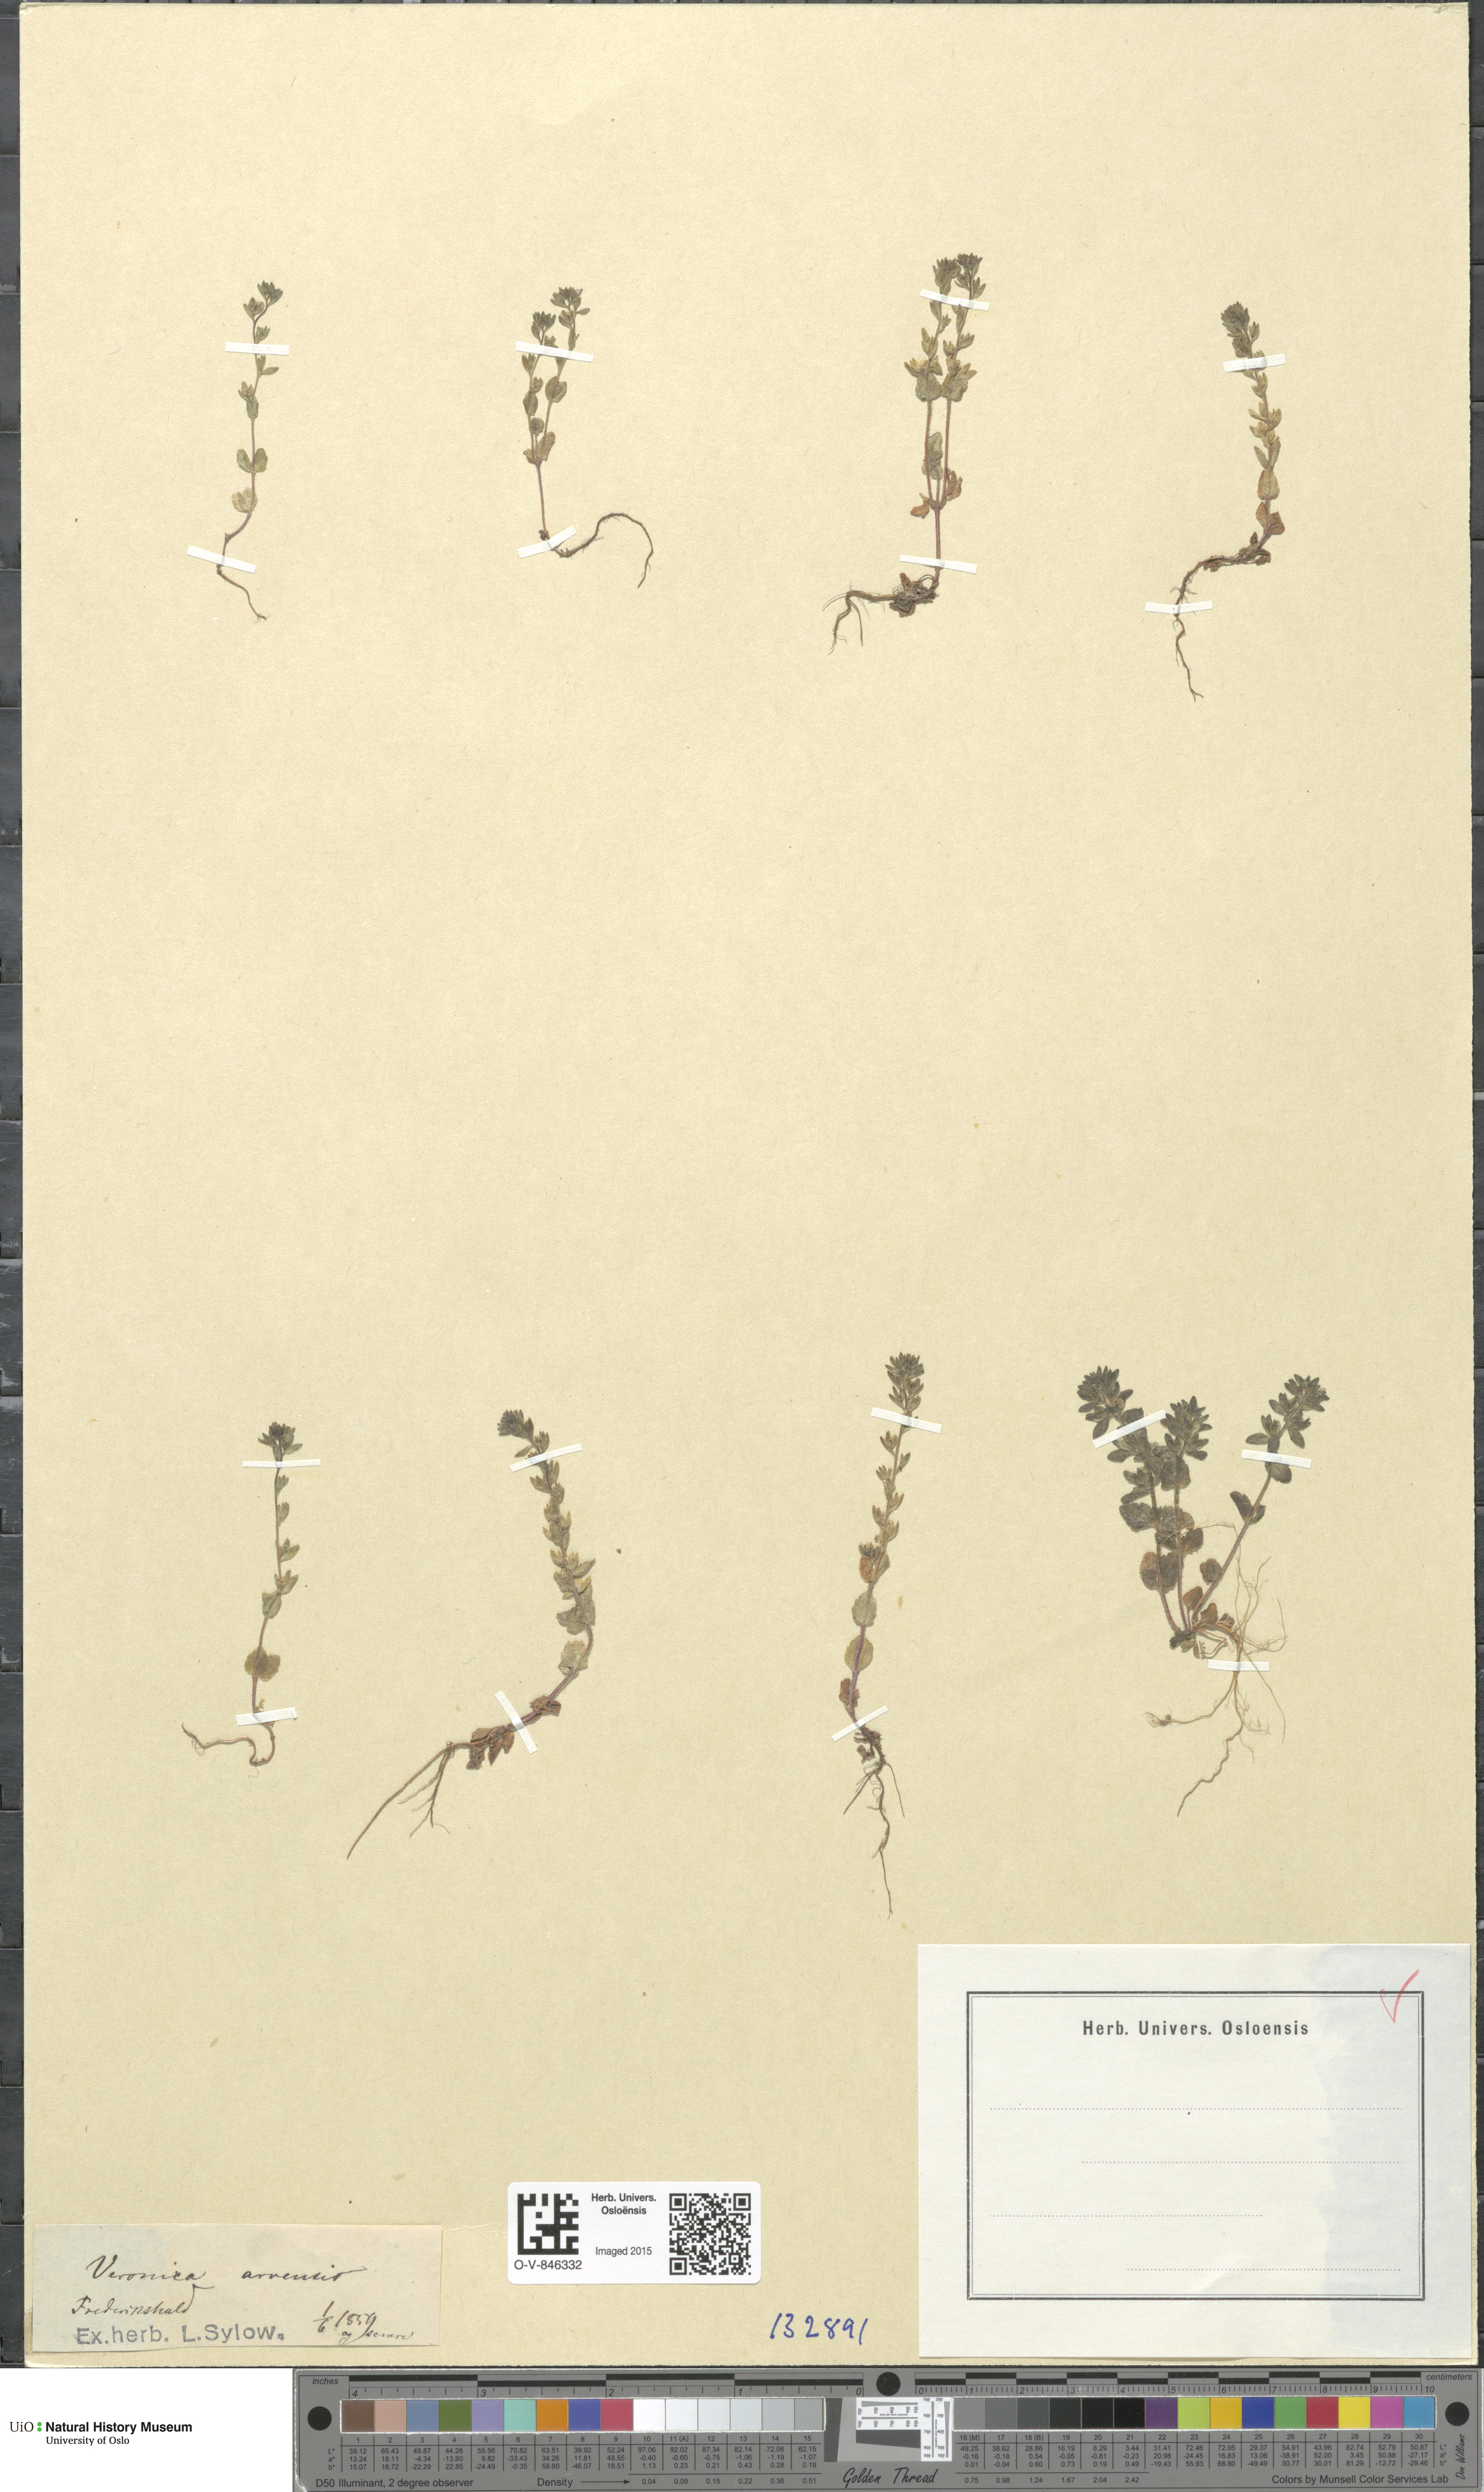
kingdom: Plantae
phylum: Tracheophyta
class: Magnoliopsida
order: Lamiales
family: Plantaginaceae
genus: Veronica
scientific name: Veronica arvensis
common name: Corn speedwell
